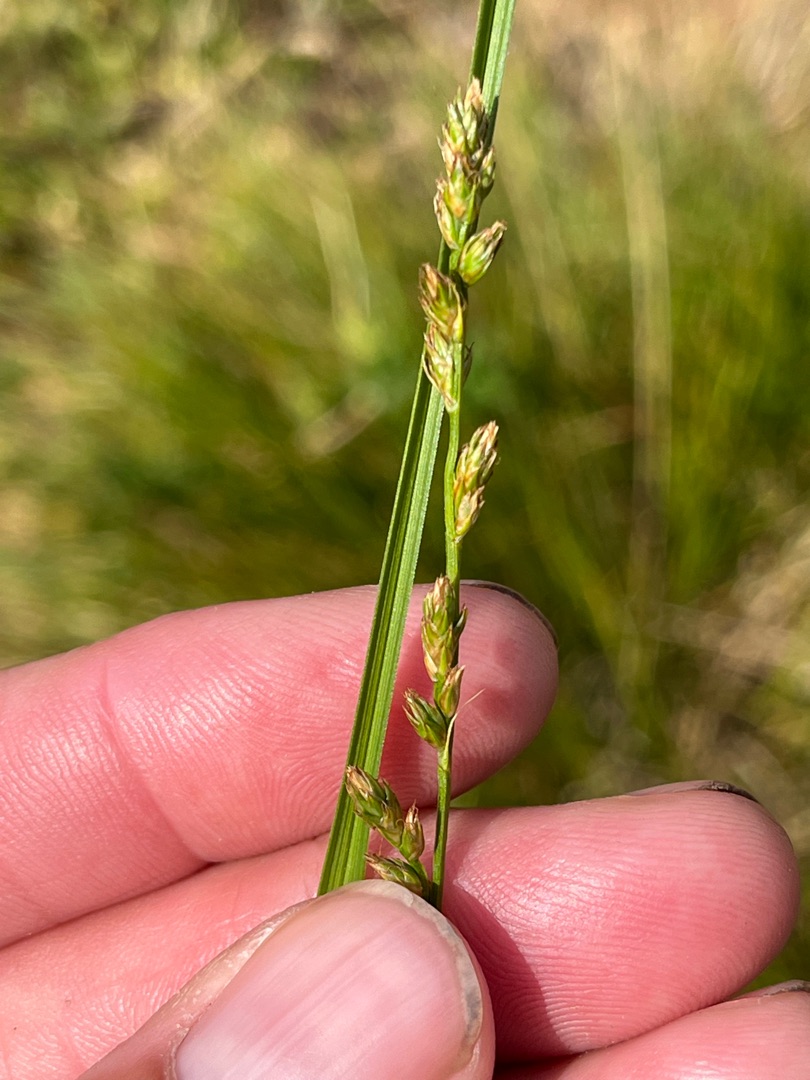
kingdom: Plantae
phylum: Tracheophyta
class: Liliopsida
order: Poales
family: Cyperaceae
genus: Carex
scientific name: Carex divulsa
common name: Mellembrudt star
